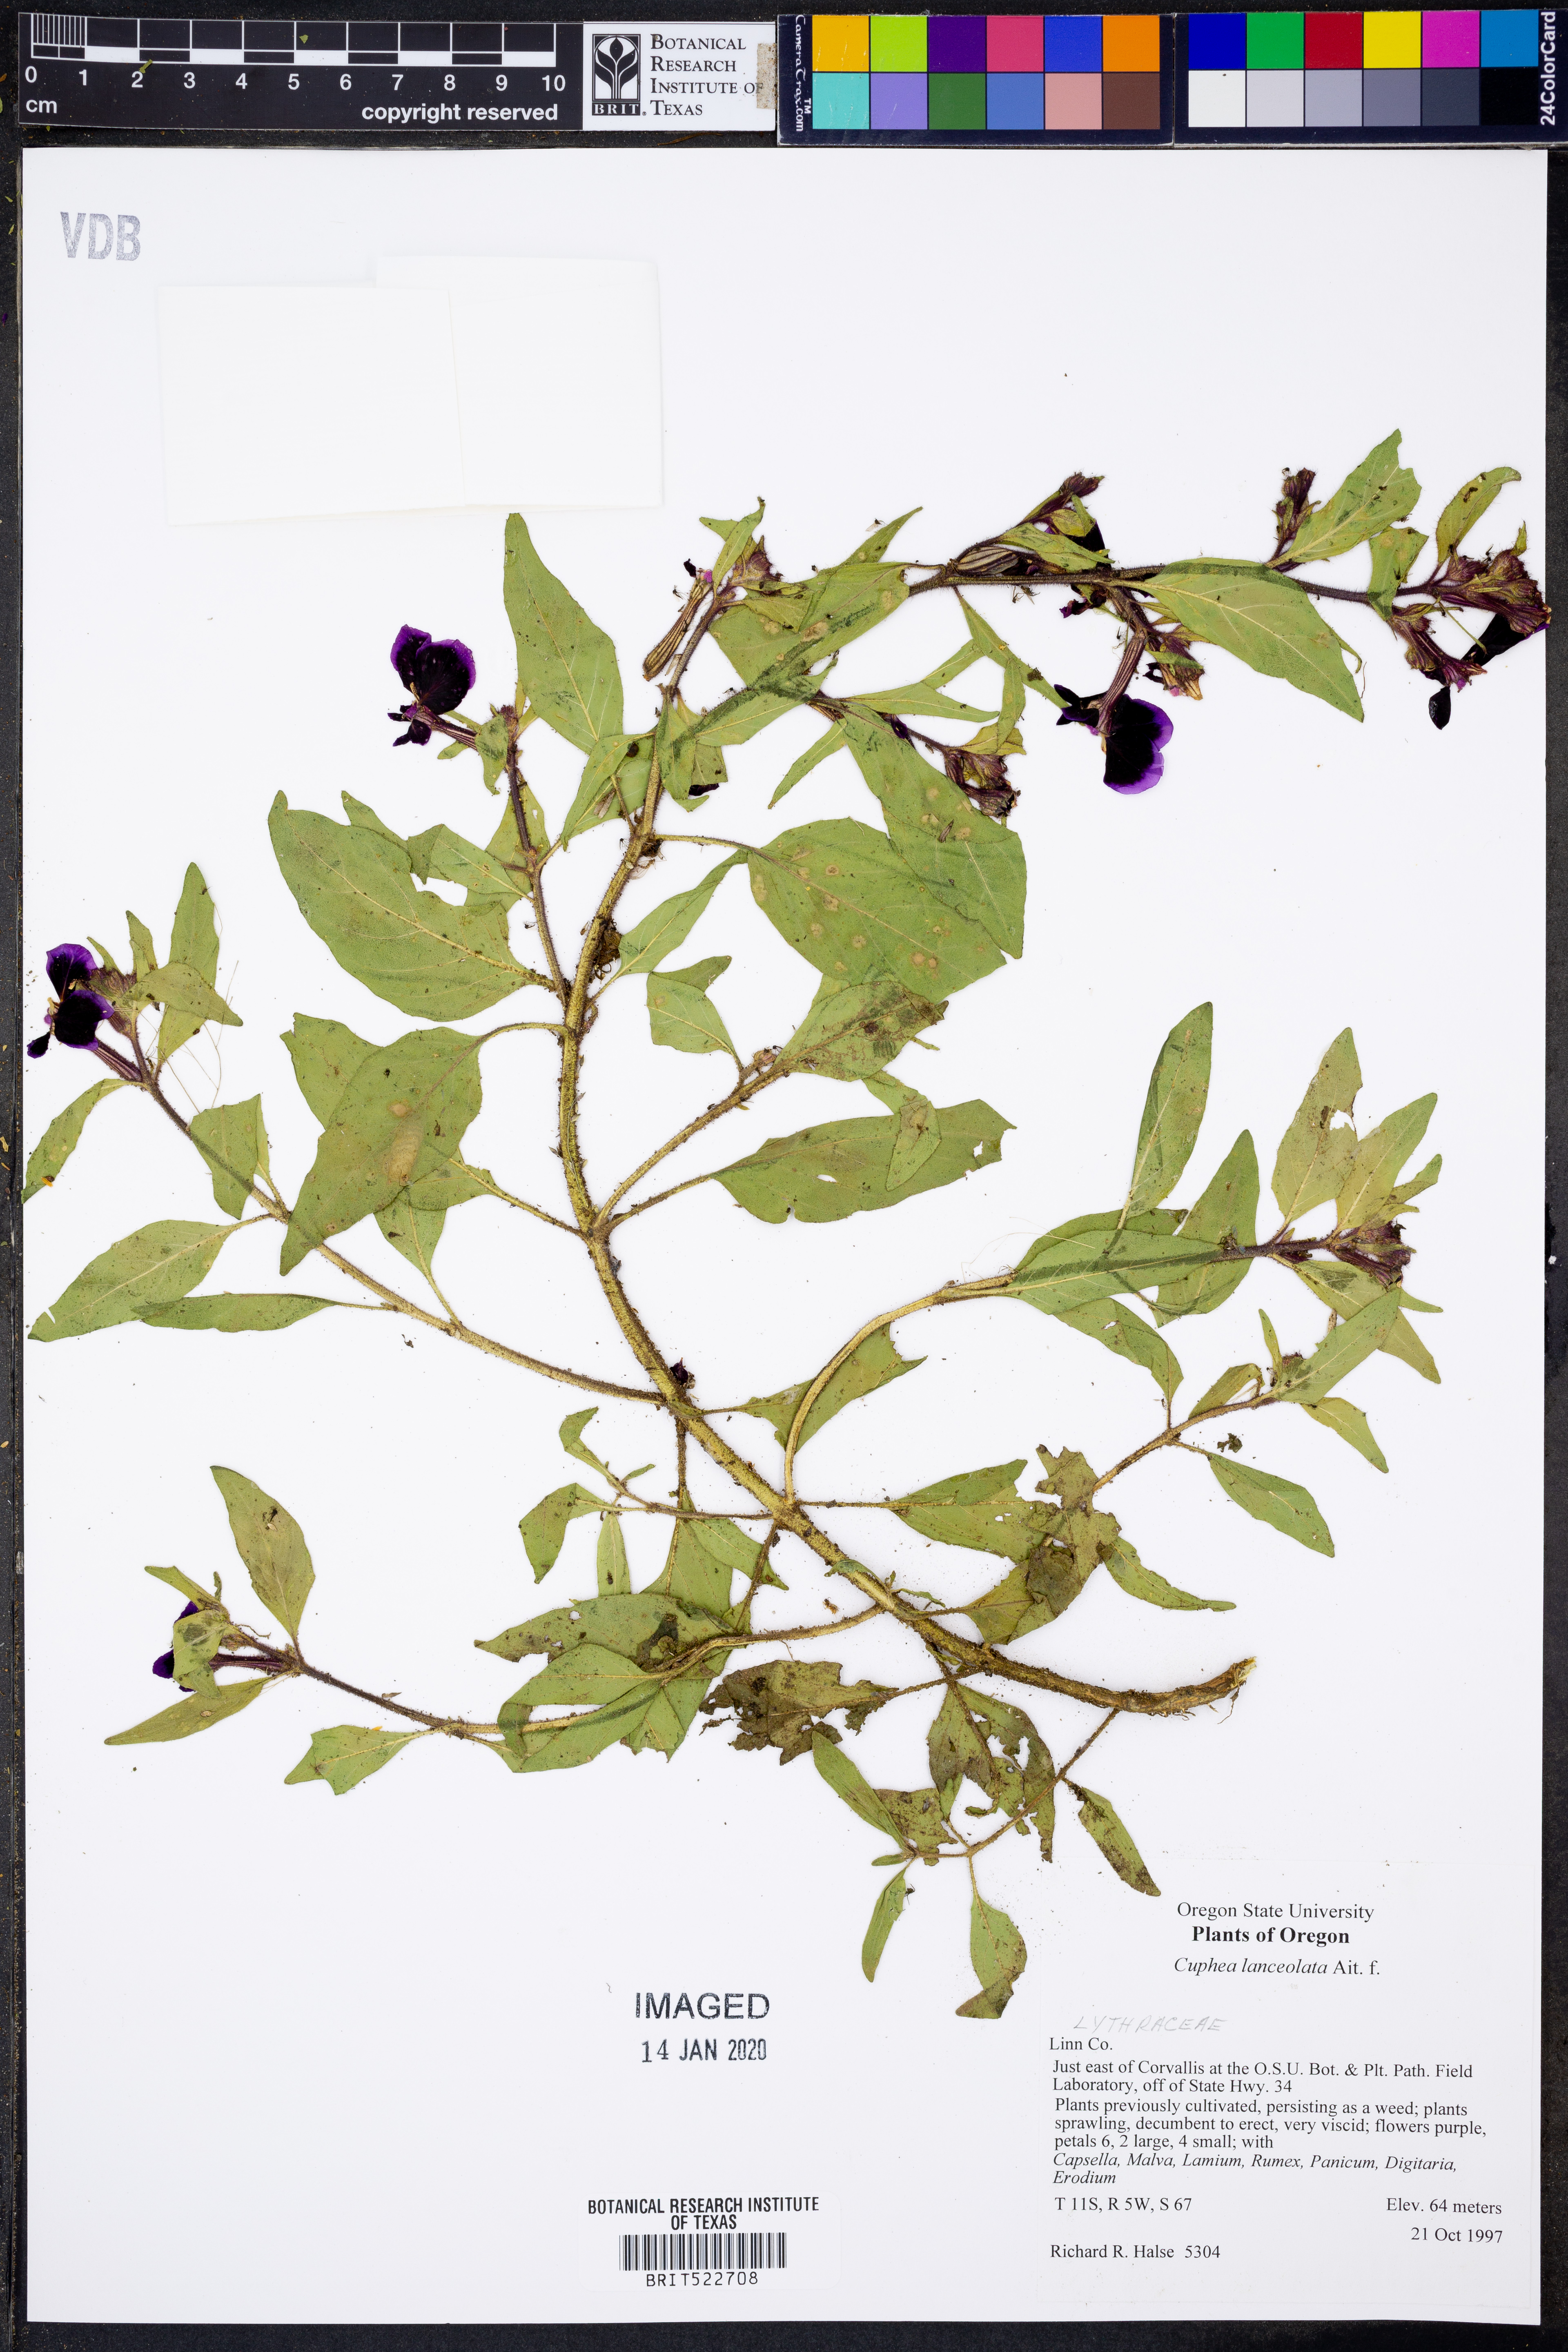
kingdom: Plantae
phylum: Tracheophyta
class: Magnoliopsida
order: Myrtales
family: Lythraceae
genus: Cuphea
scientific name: Cuphea lanceolata
